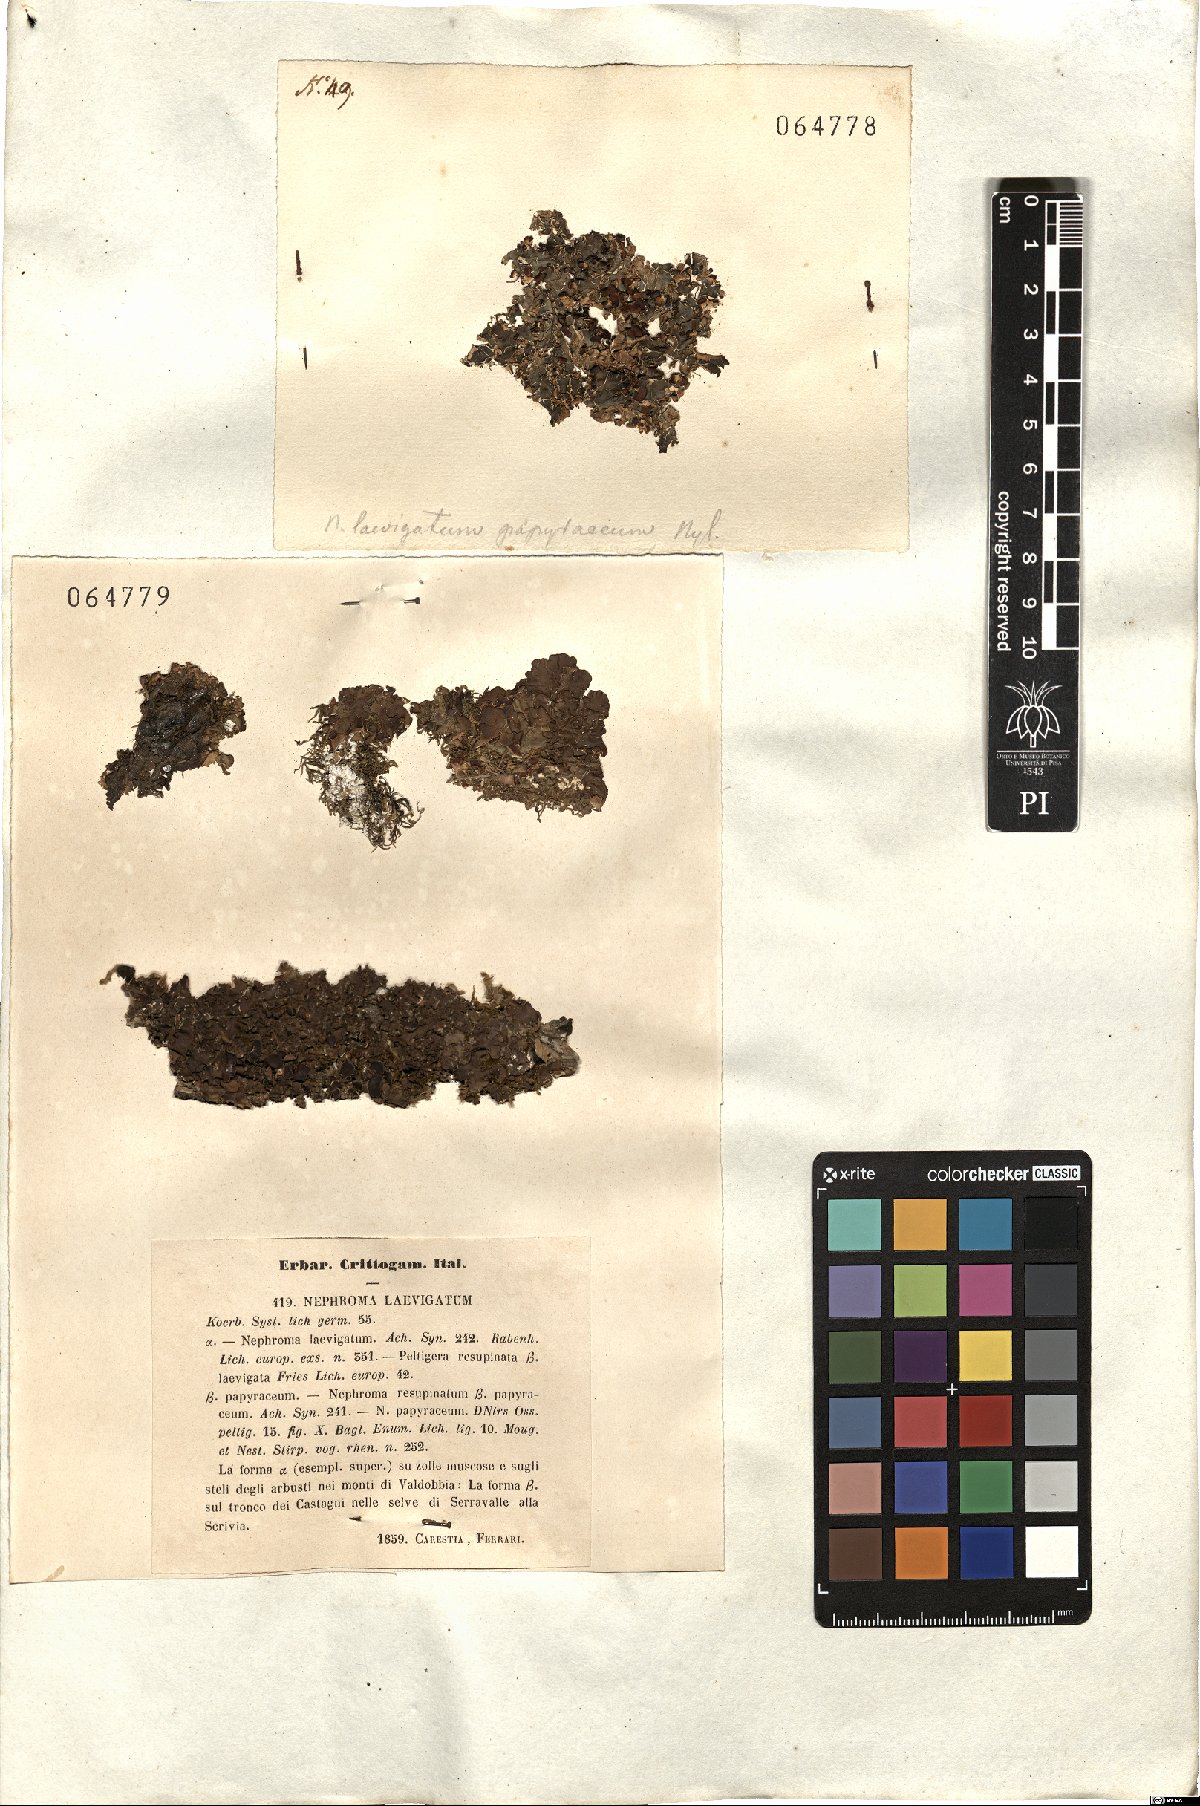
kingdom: Fungi
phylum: Ascomycota
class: Lecanoromycetes
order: Peltigerales
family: Nephromataceae
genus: Nephroma
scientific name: Nephroma laevigatum
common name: Mustard kidney lichen
